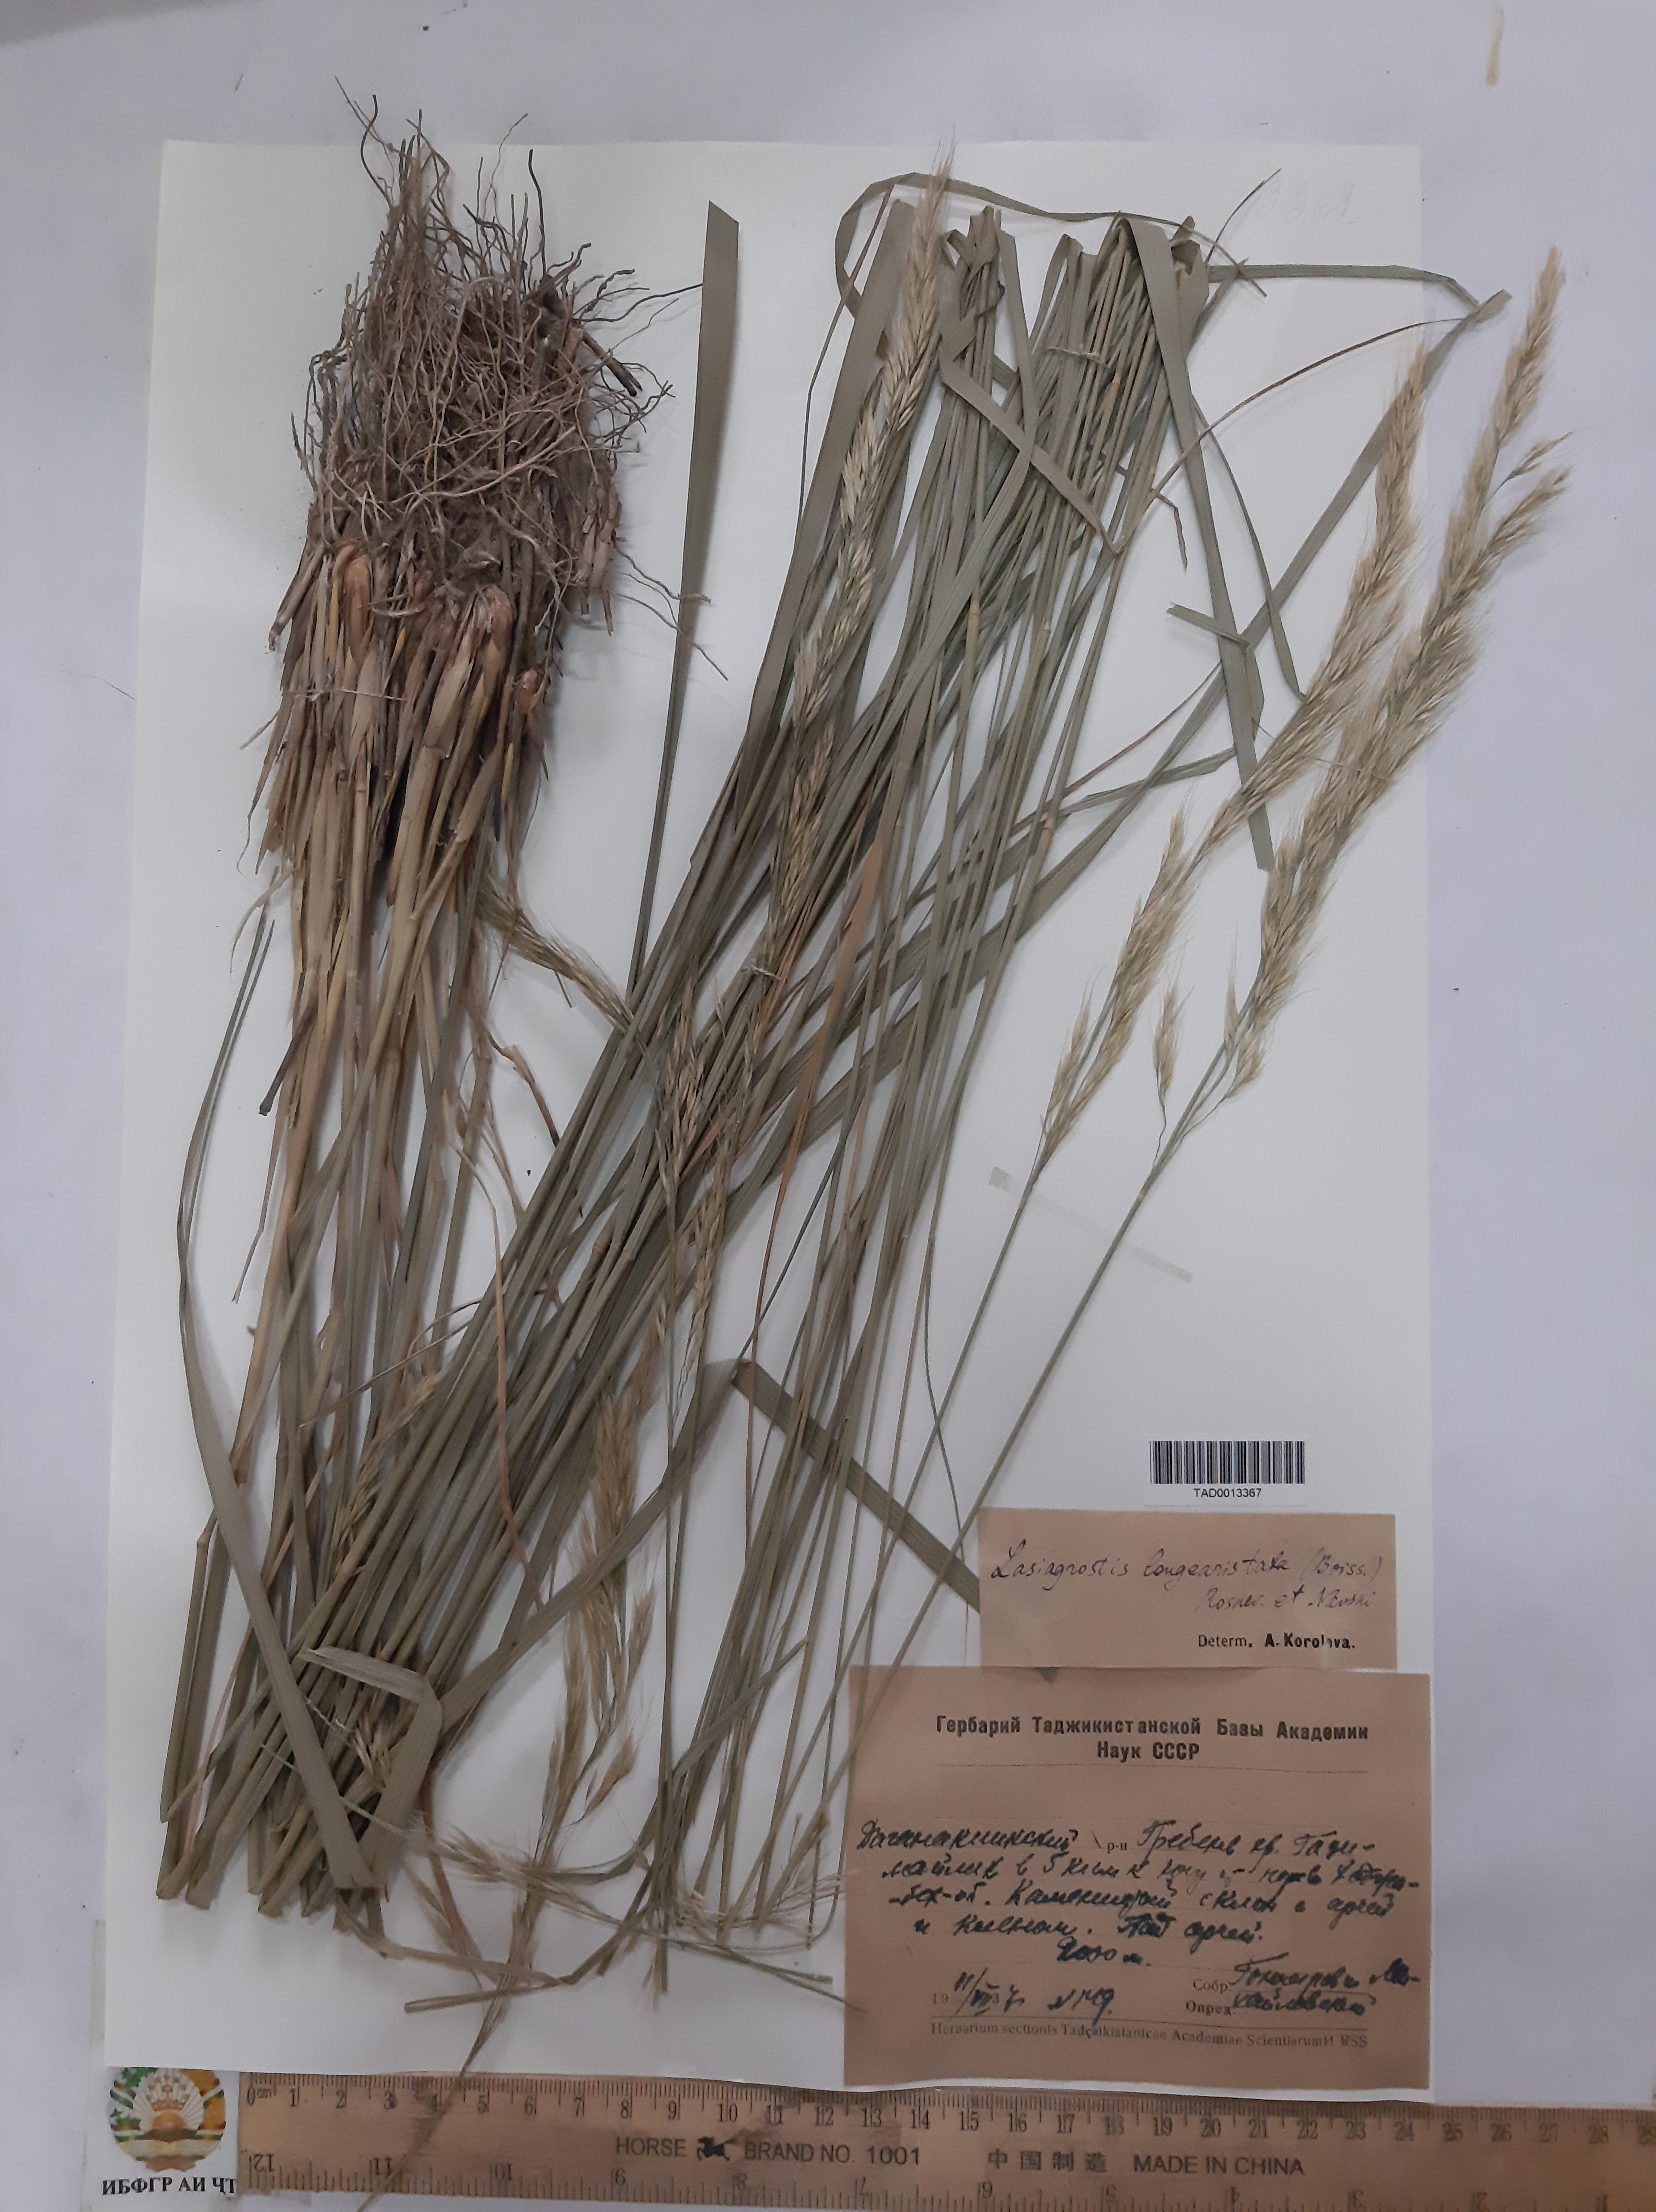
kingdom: Plantae
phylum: Tracheophyta
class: Liliopsida
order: Poales
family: Poaceae
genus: Achnatherum
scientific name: Achnatherum turcomanicum
